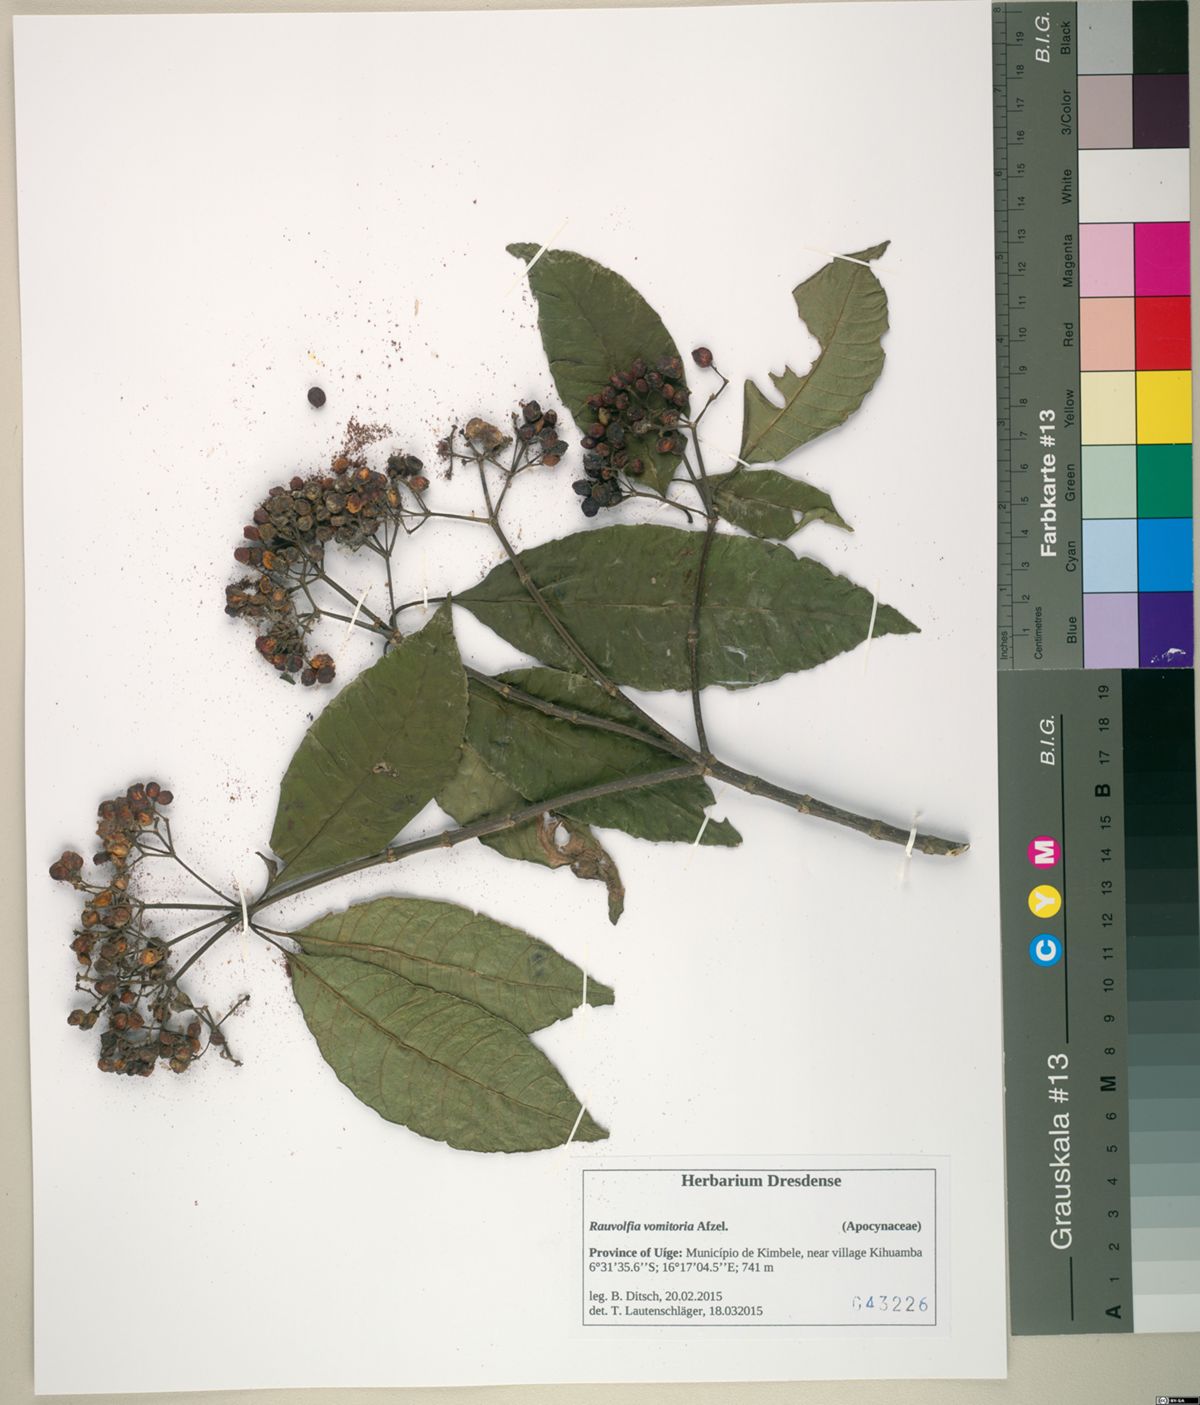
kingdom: Plantae
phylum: Tracheophyta
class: Magnoliopsida
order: Gentianales
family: Apocynaceae
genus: Rauvolfia
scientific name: Rauvolfia vomitoria
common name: Poison devil's-pepper
